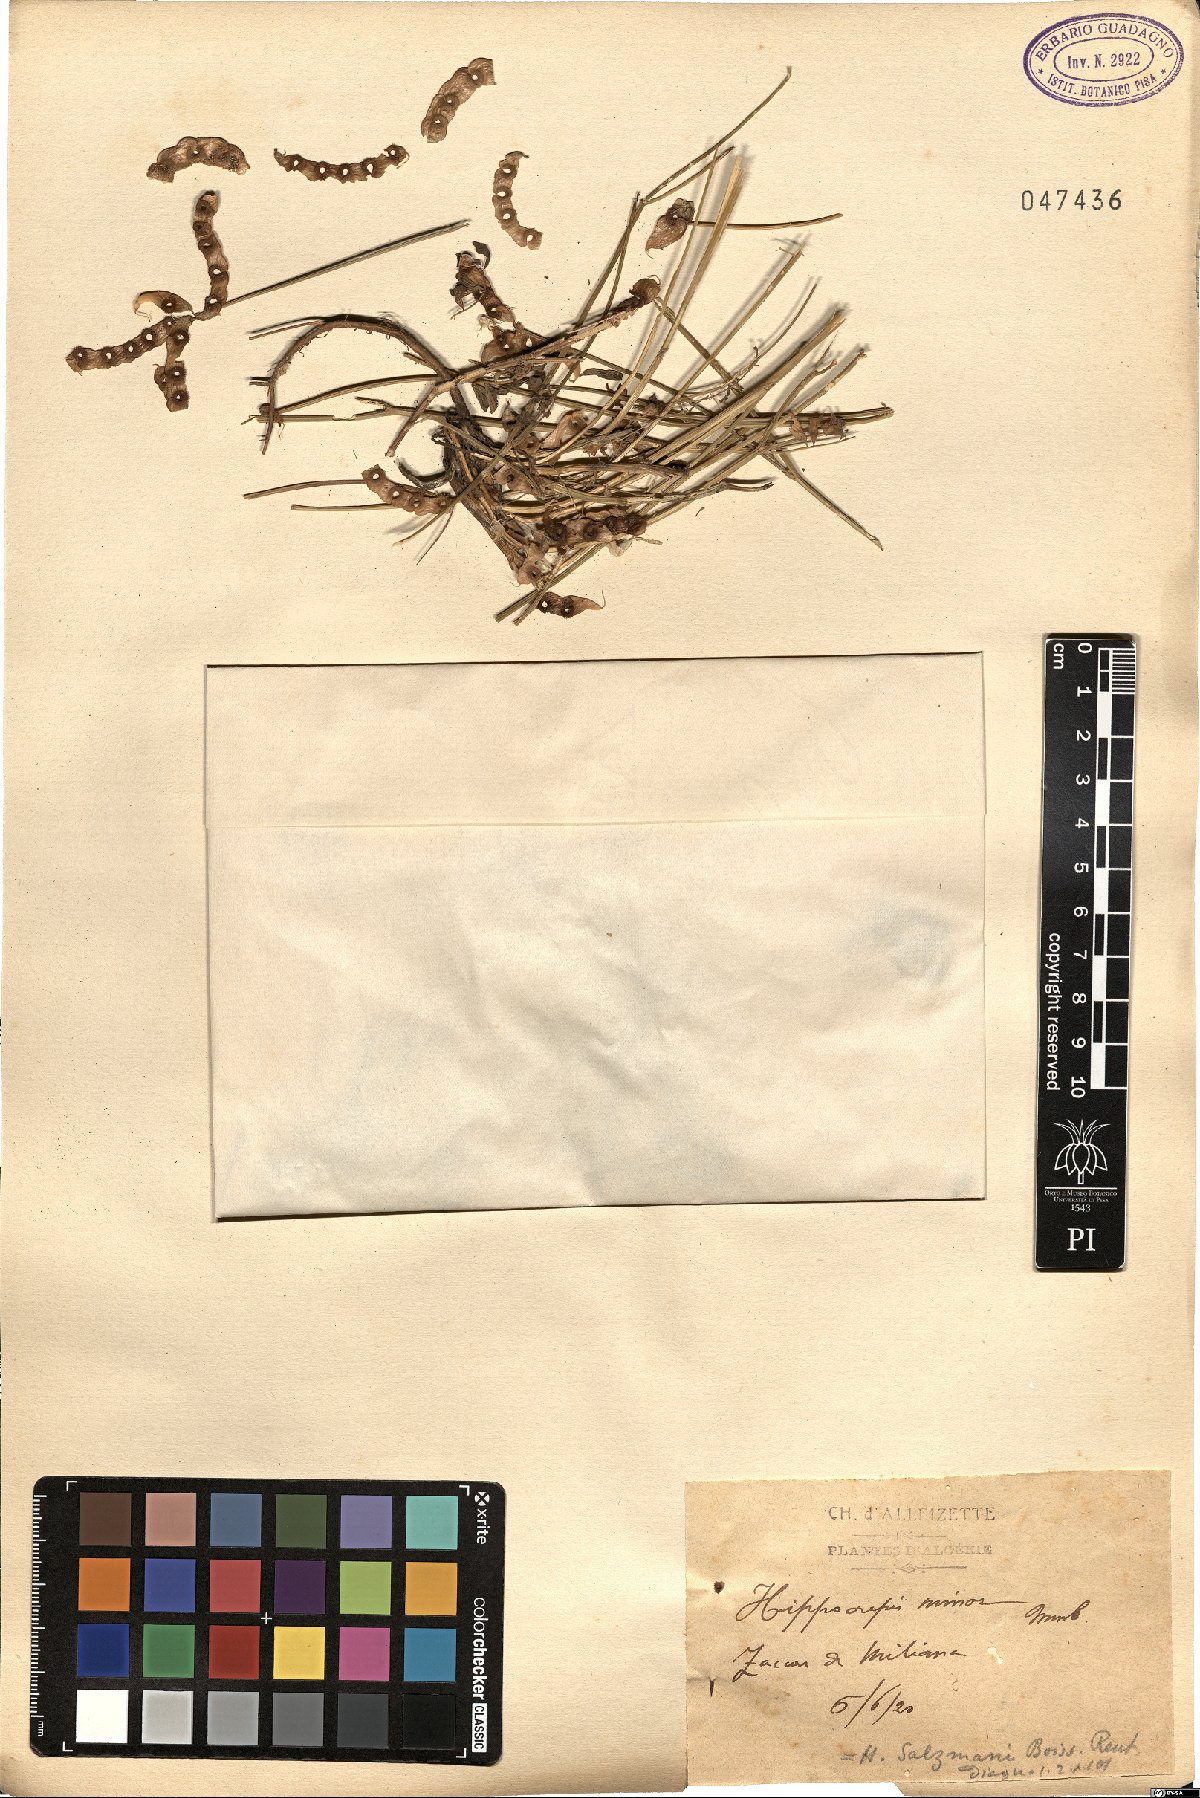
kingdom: Plantae
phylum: Tracheophyta
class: Magnoliopsida
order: Fabales
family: Fabaceae
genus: Hippocrepis
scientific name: Hippocrepis minor
